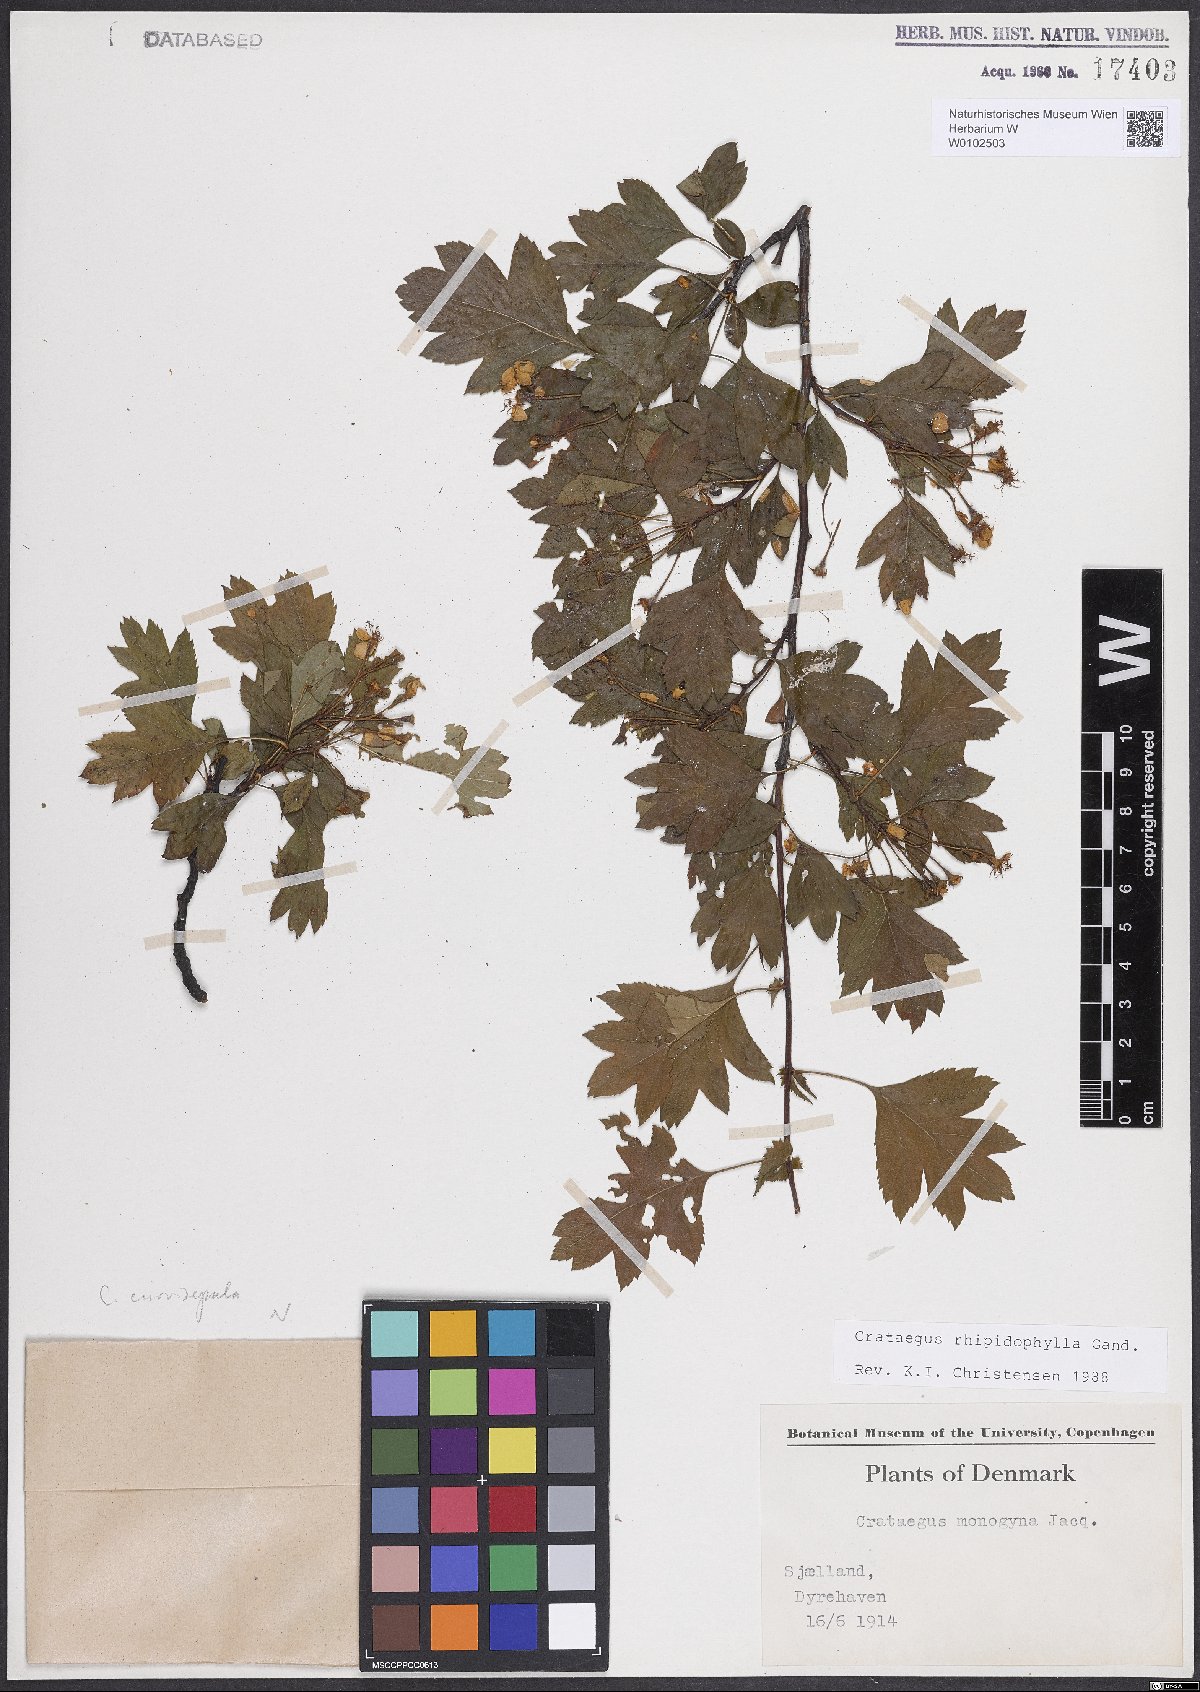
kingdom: Plantae
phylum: Tracheophyta
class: Magnoliopsida
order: Rosales
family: Rosaceae
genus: Crataegus
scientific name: Crataegus rhipidophylla
